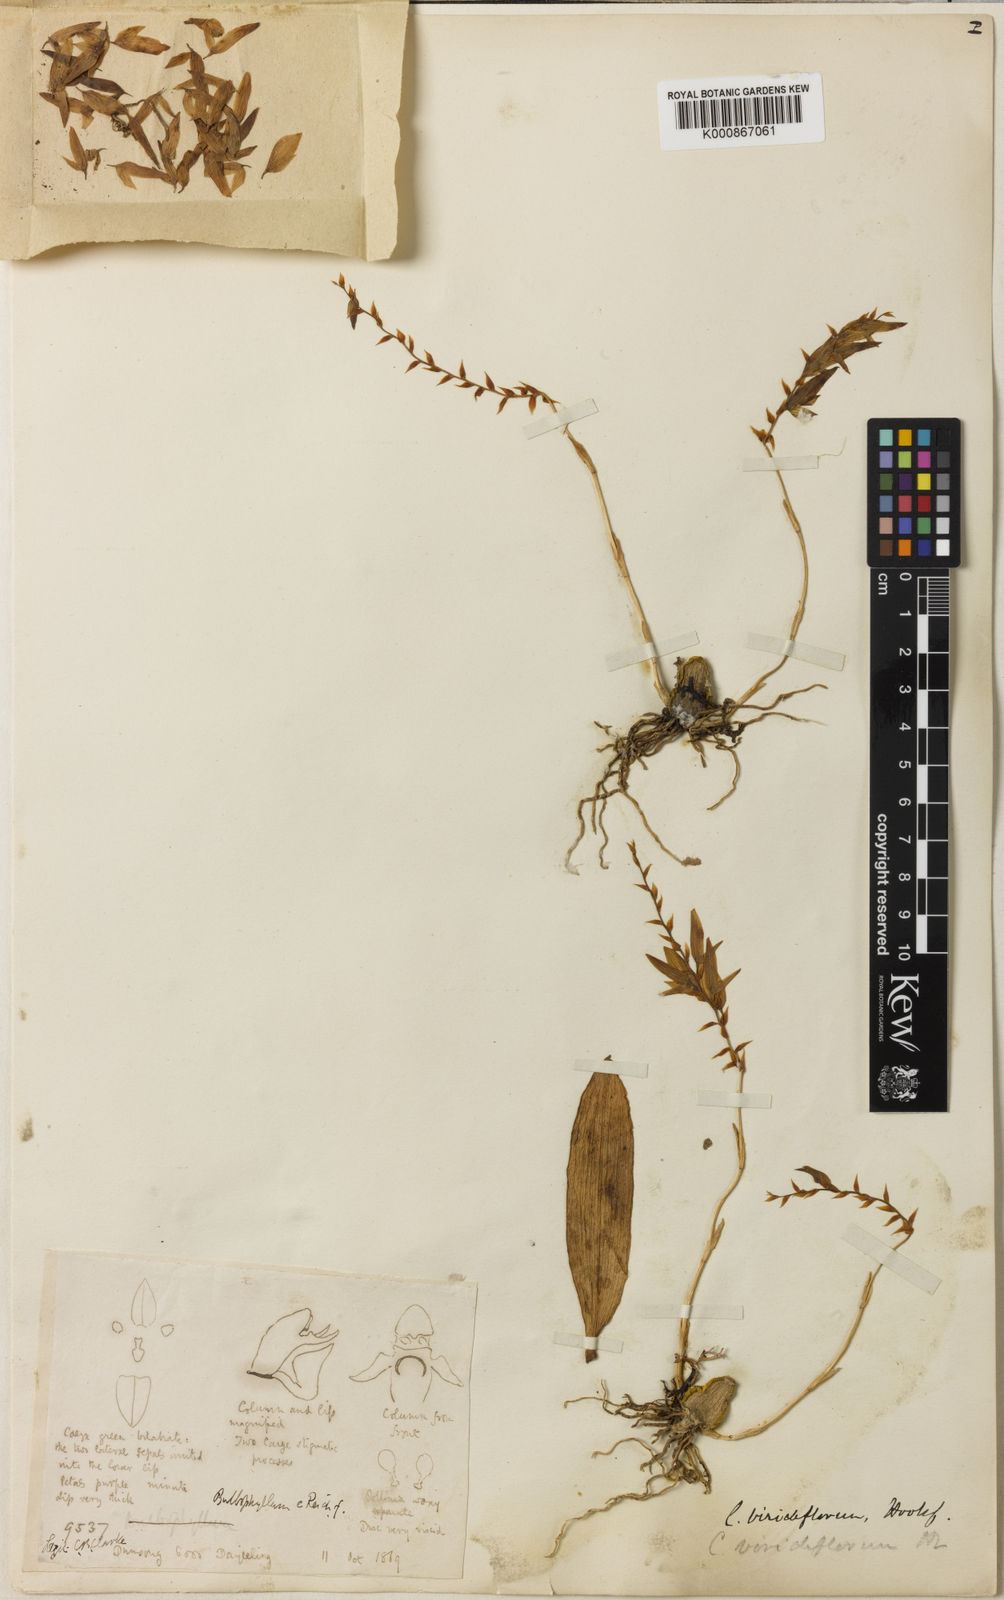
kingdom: Plantae
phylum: Tracheophyta
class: Liliopsida
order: Asparagales
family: Orchidaceae
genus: Bulbophyllum
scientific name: Bulbophyllum viridiflorum
